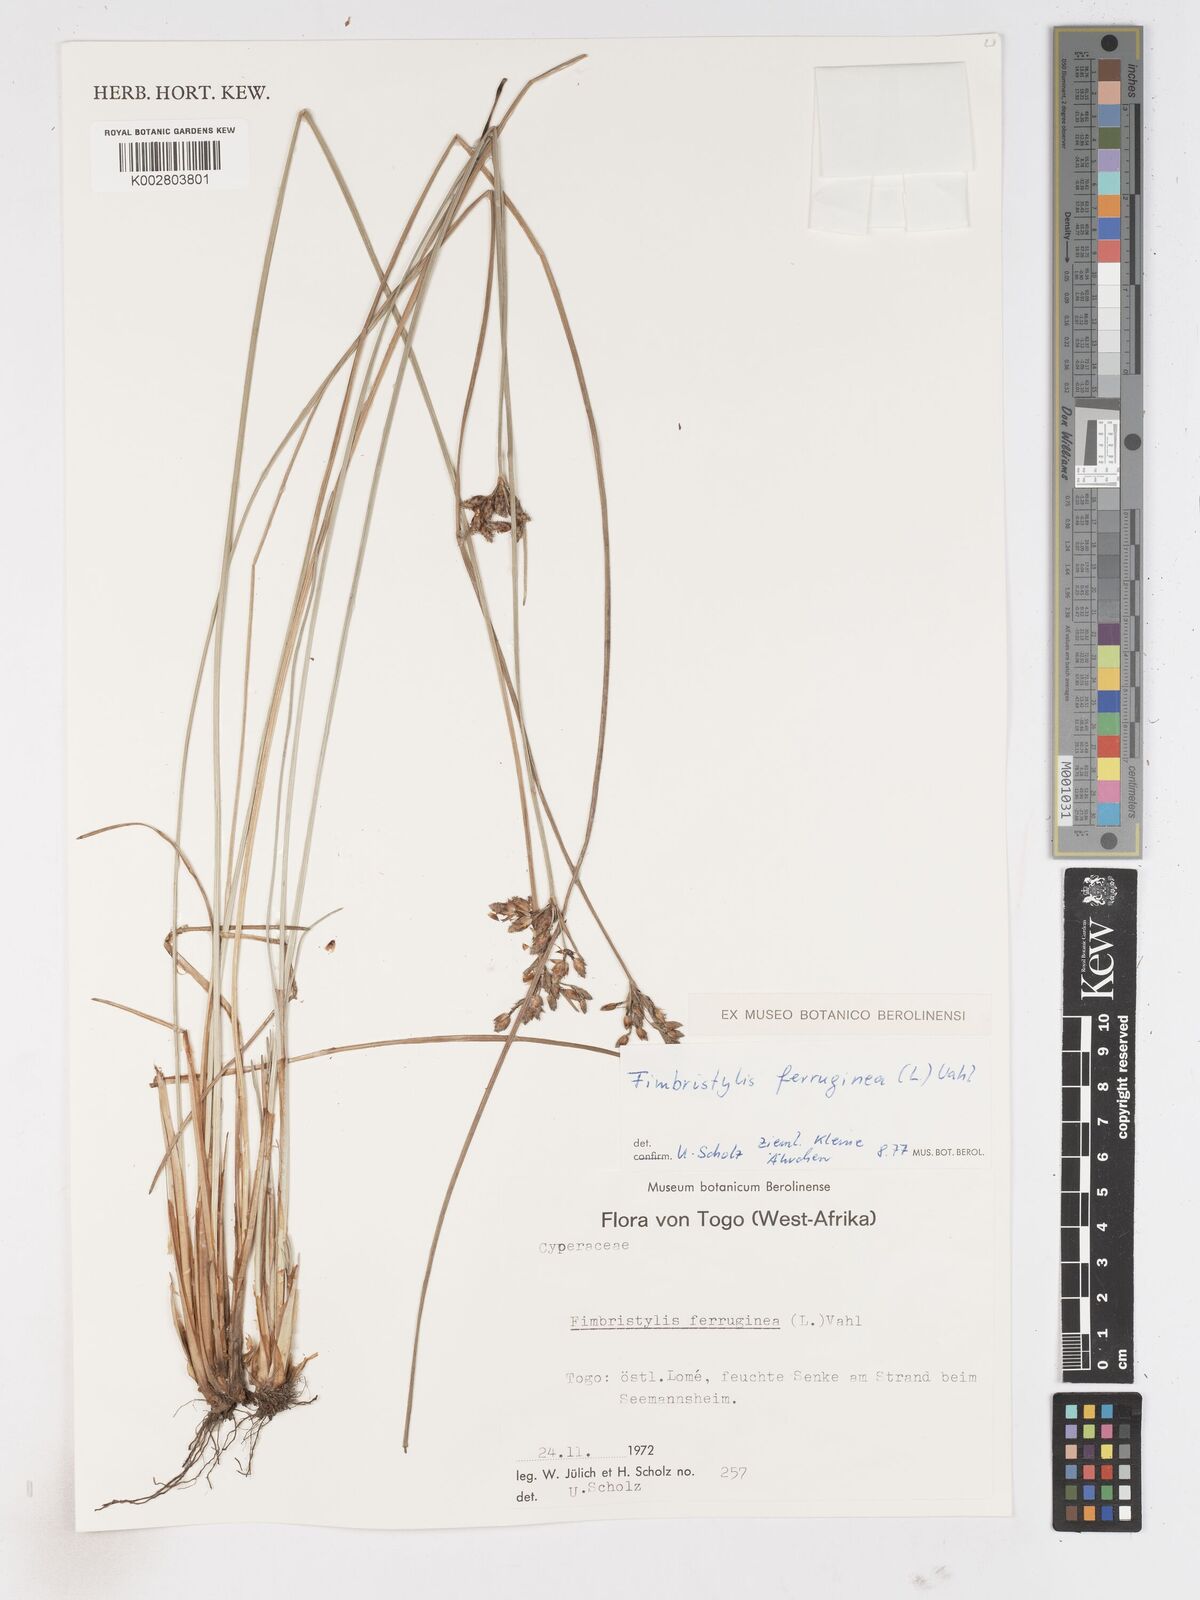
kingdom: Plantae
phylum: Tracheophyta
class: Liliopsida
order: Poales
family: Cyperaceae
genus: Fimbristylis
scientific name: Fimbristylis ferruginea
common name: West indian fimbry
